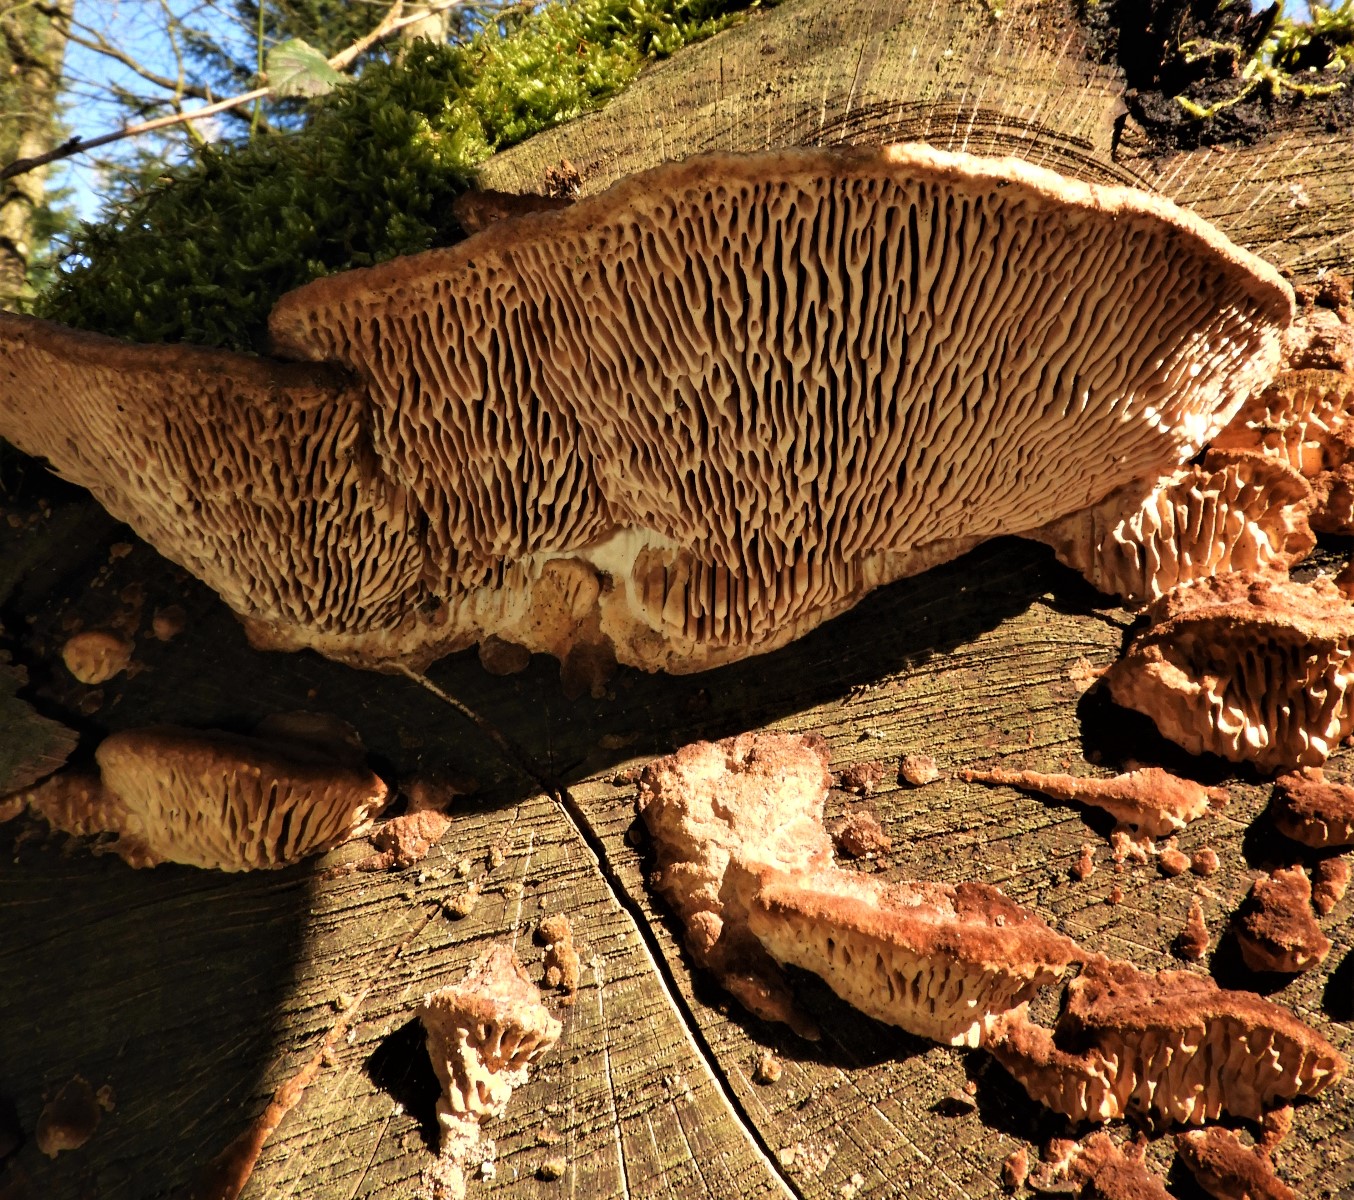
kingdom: Fungi
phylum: Basidiomycota
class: Agaricomycetes
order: Polyporales
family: Fomitopsidaceae
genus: Daedalea
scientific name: Daedalea quercina
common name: ege-labyrintsvamp
